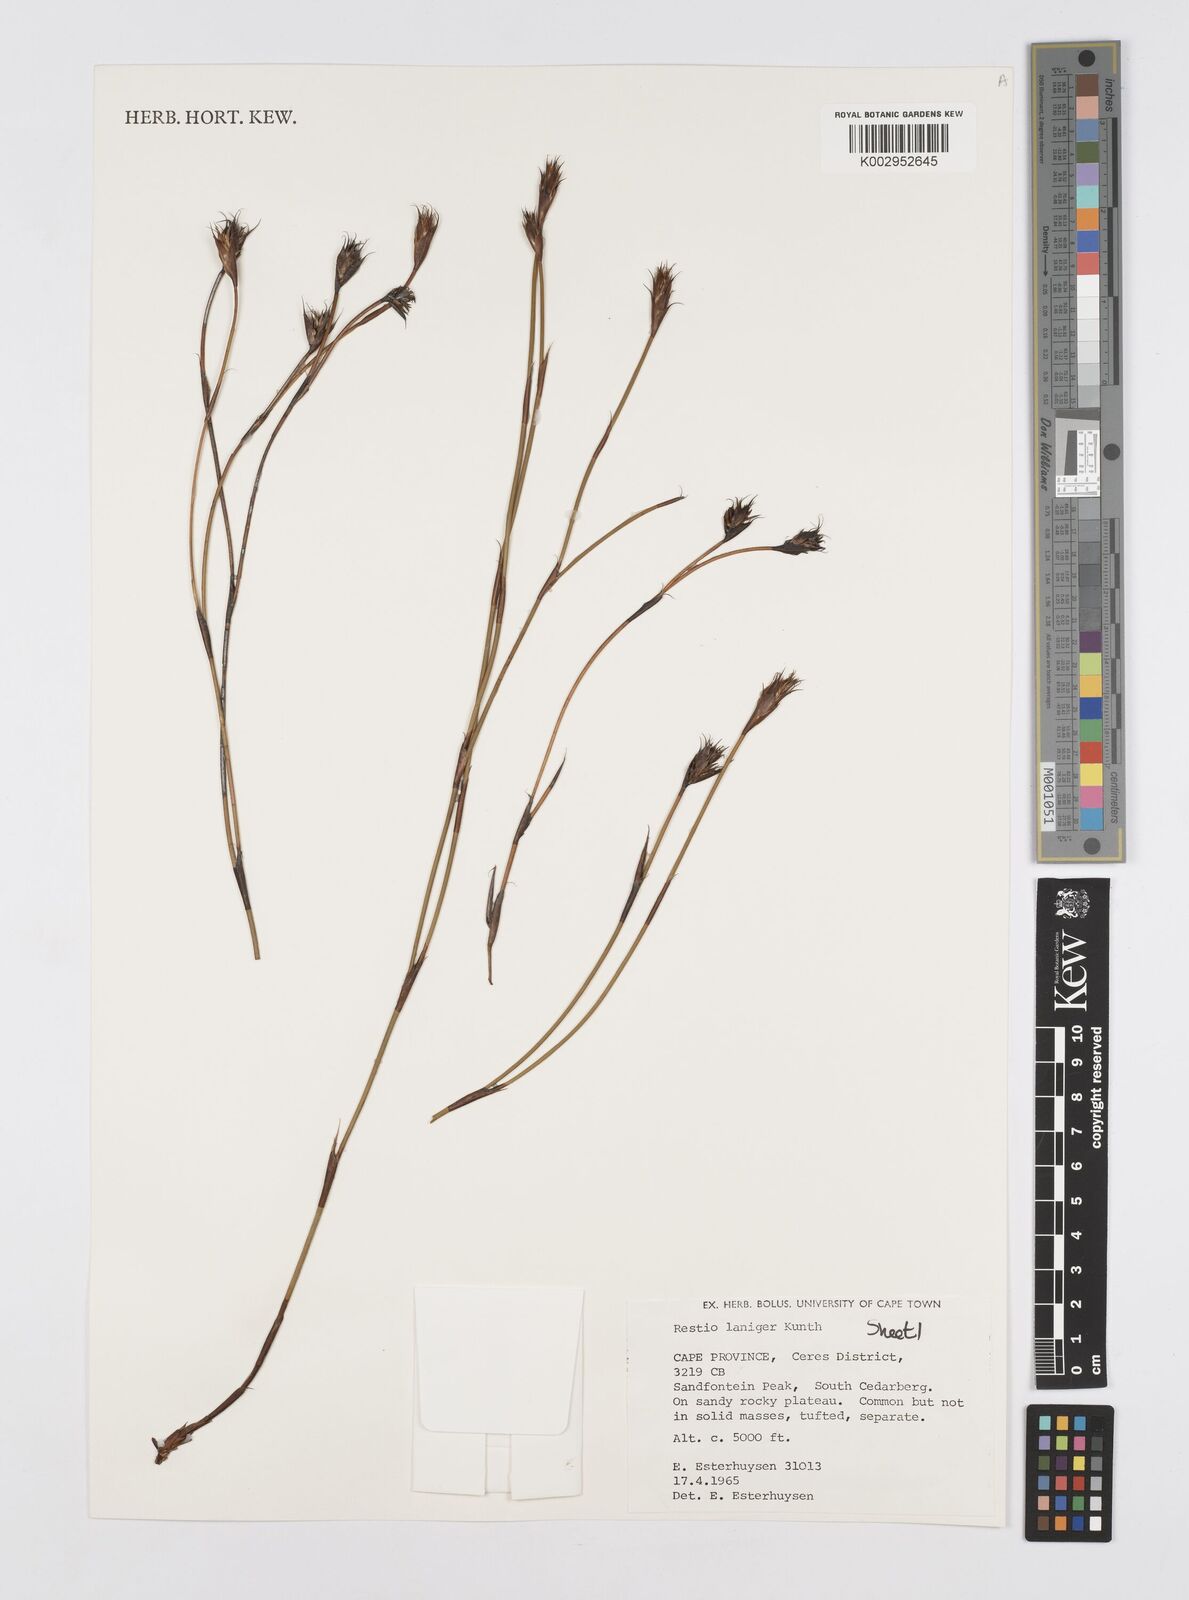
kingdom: Plantae
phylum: Tracheophyta
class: Liliopsida
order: Poales
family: Restionaceae
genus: Restio
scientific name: Restio laniger
